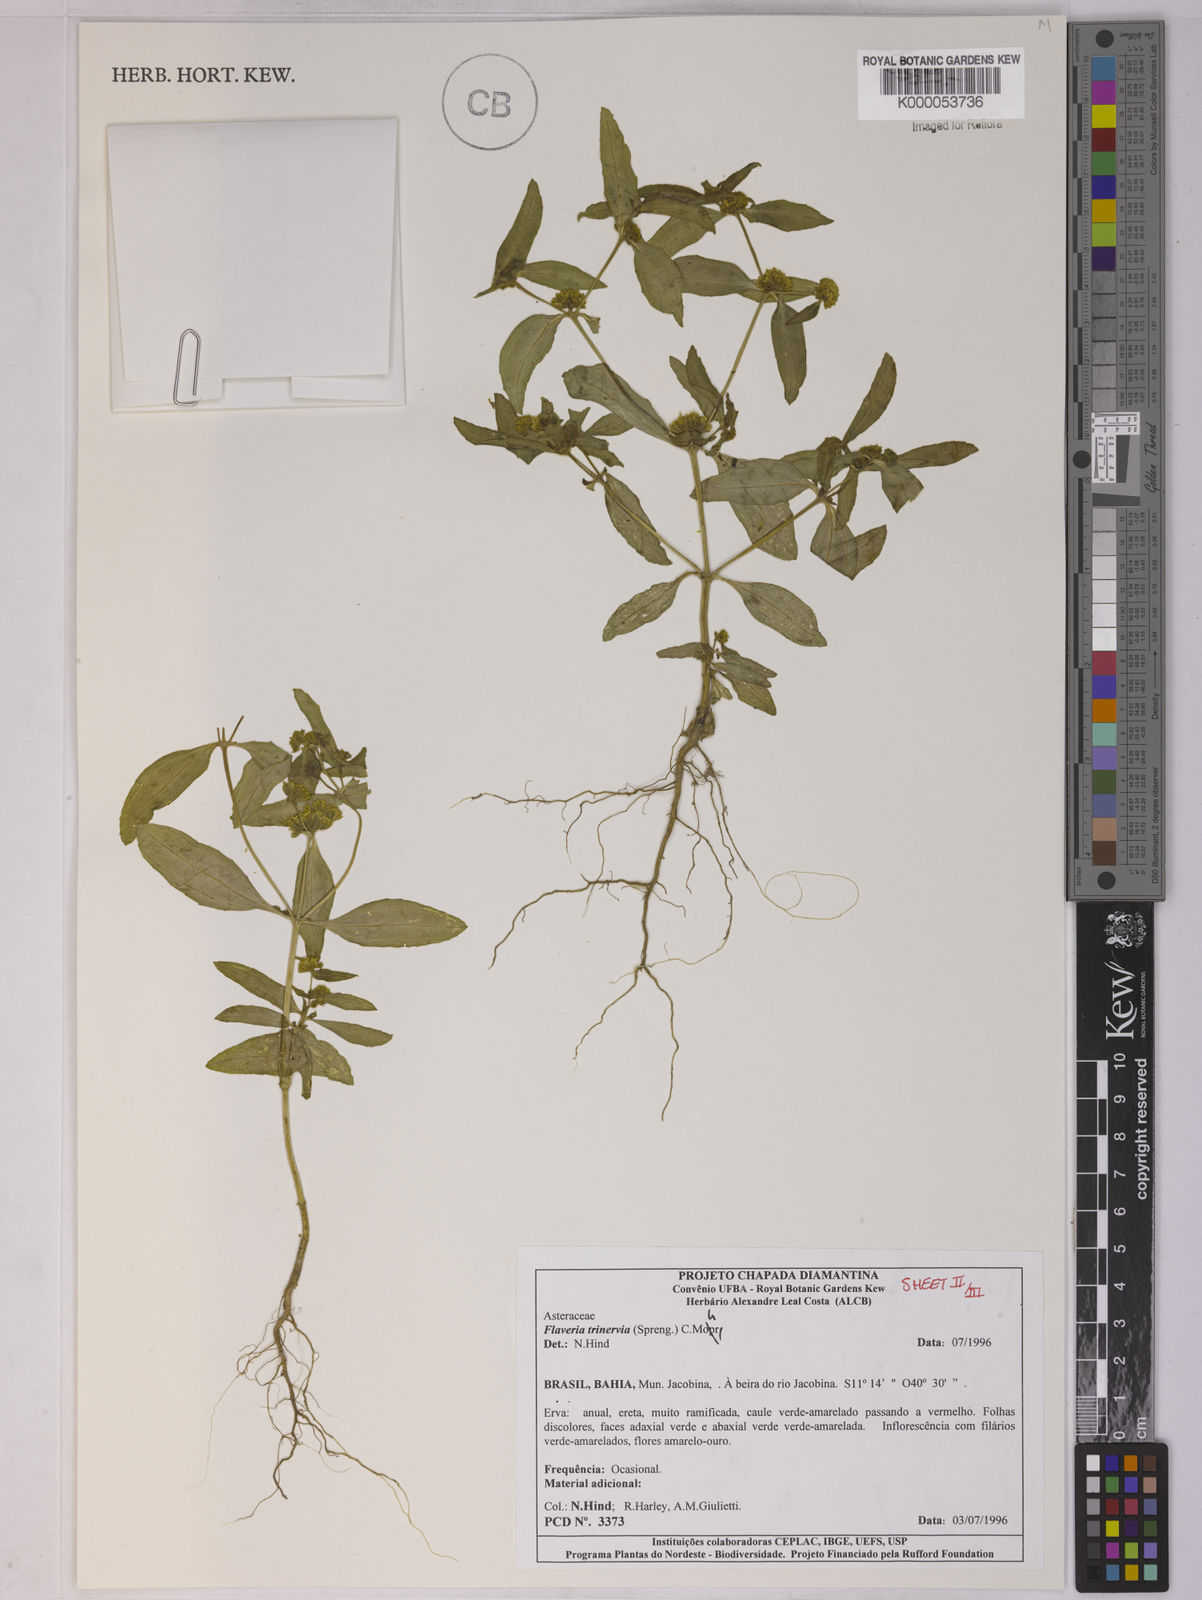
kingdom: Plantae
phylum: Tracheophyta
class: Magnoliopsida
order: Asterales
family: Asteraceae
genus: Flaveria
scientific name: Flaveria trinervia
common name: Clustered yellowtops
